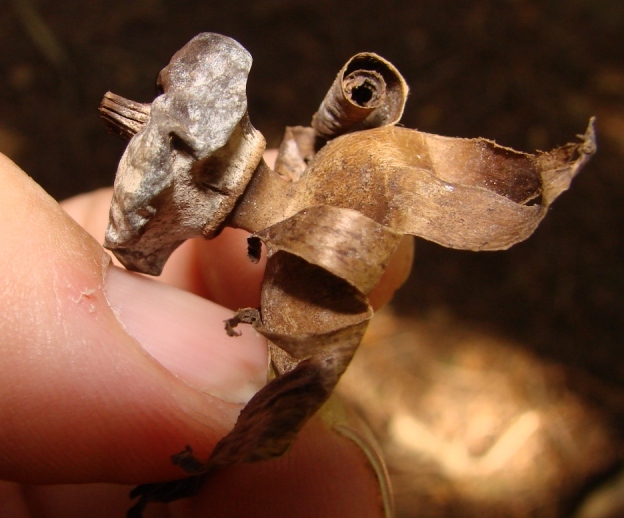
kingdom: Fungi
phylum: Basidiomycota
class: Agaricomycetes
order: Geastrales
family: Geastraceae
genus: Geastrum
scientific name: Geastrum striatum
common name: krave-stjernebold
